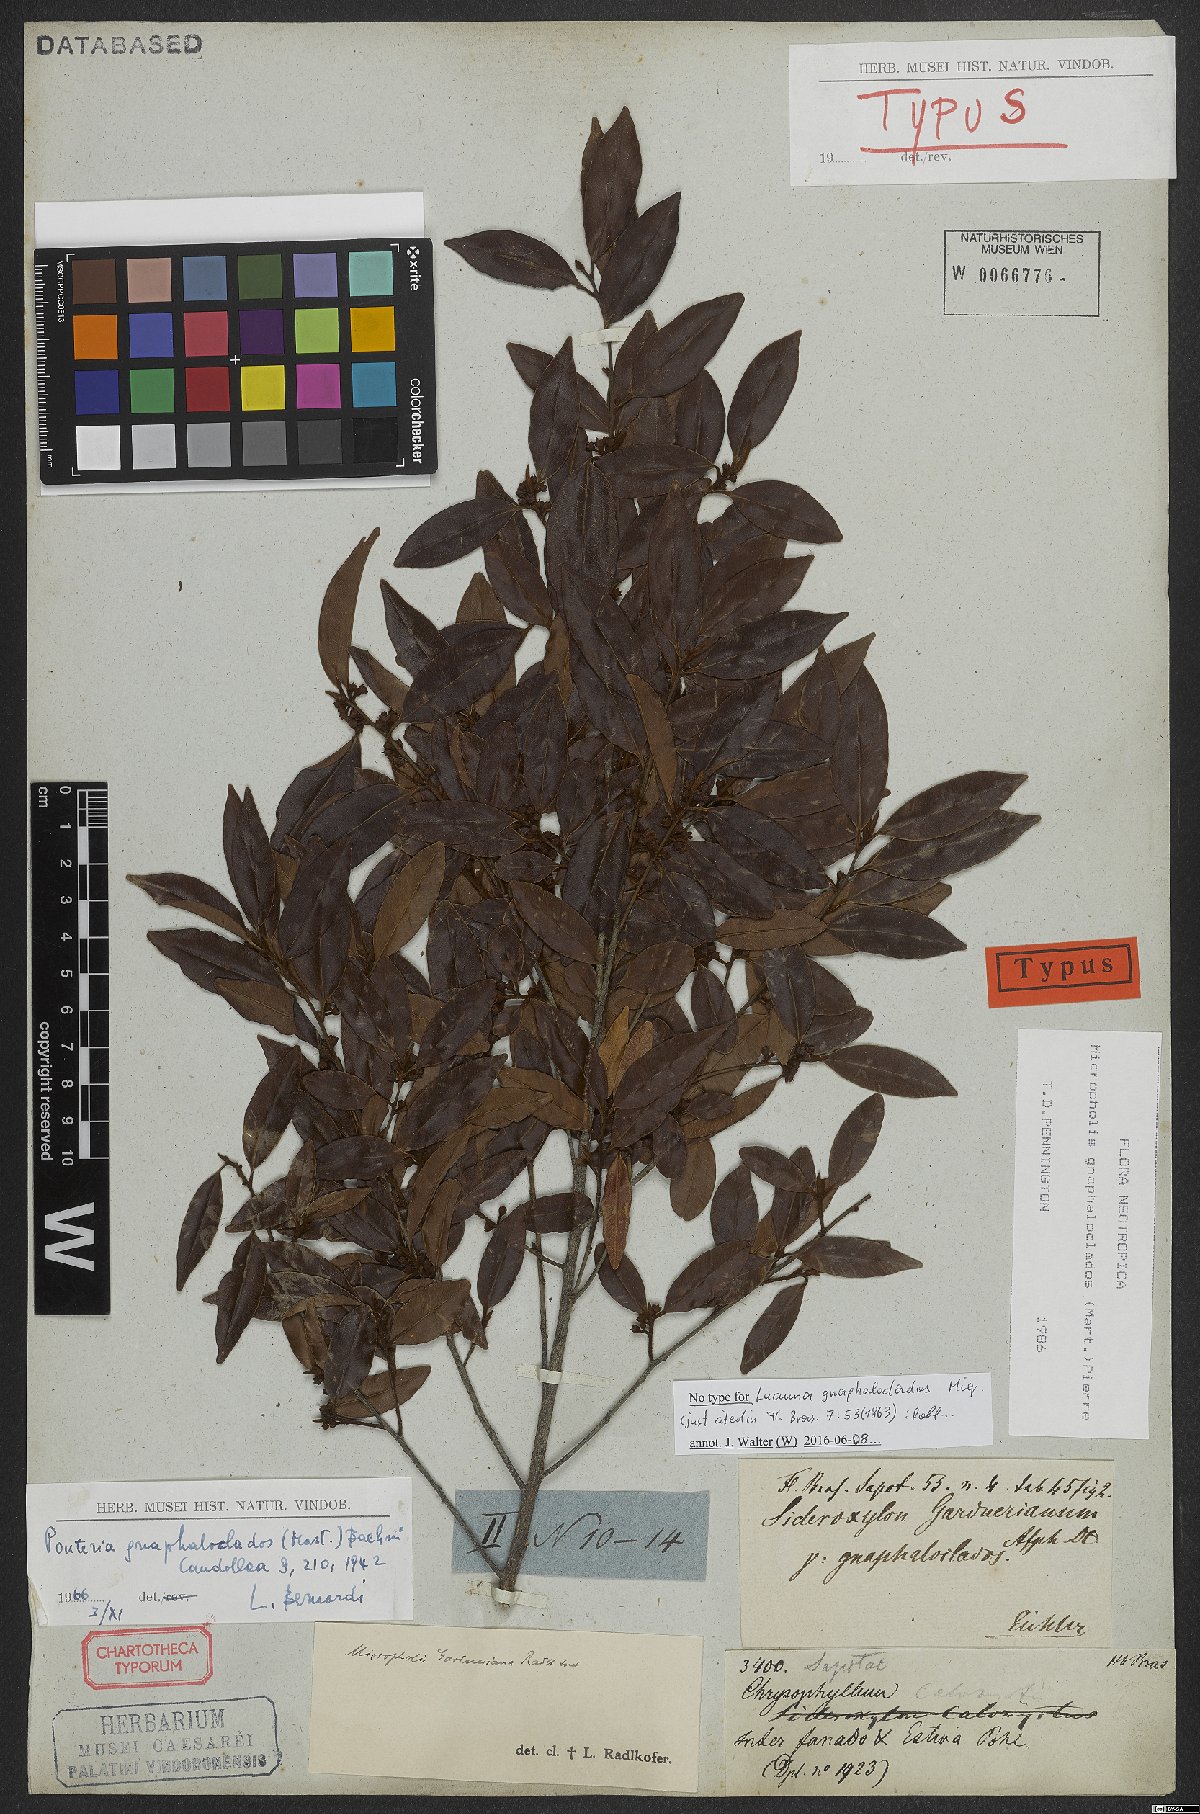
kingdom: Plantae
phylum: Tracheophyta
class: Magnoliopsida
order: Ericales
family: Sapotaceae
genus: Micropholis
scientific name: Micropholis gnaphaloclados
